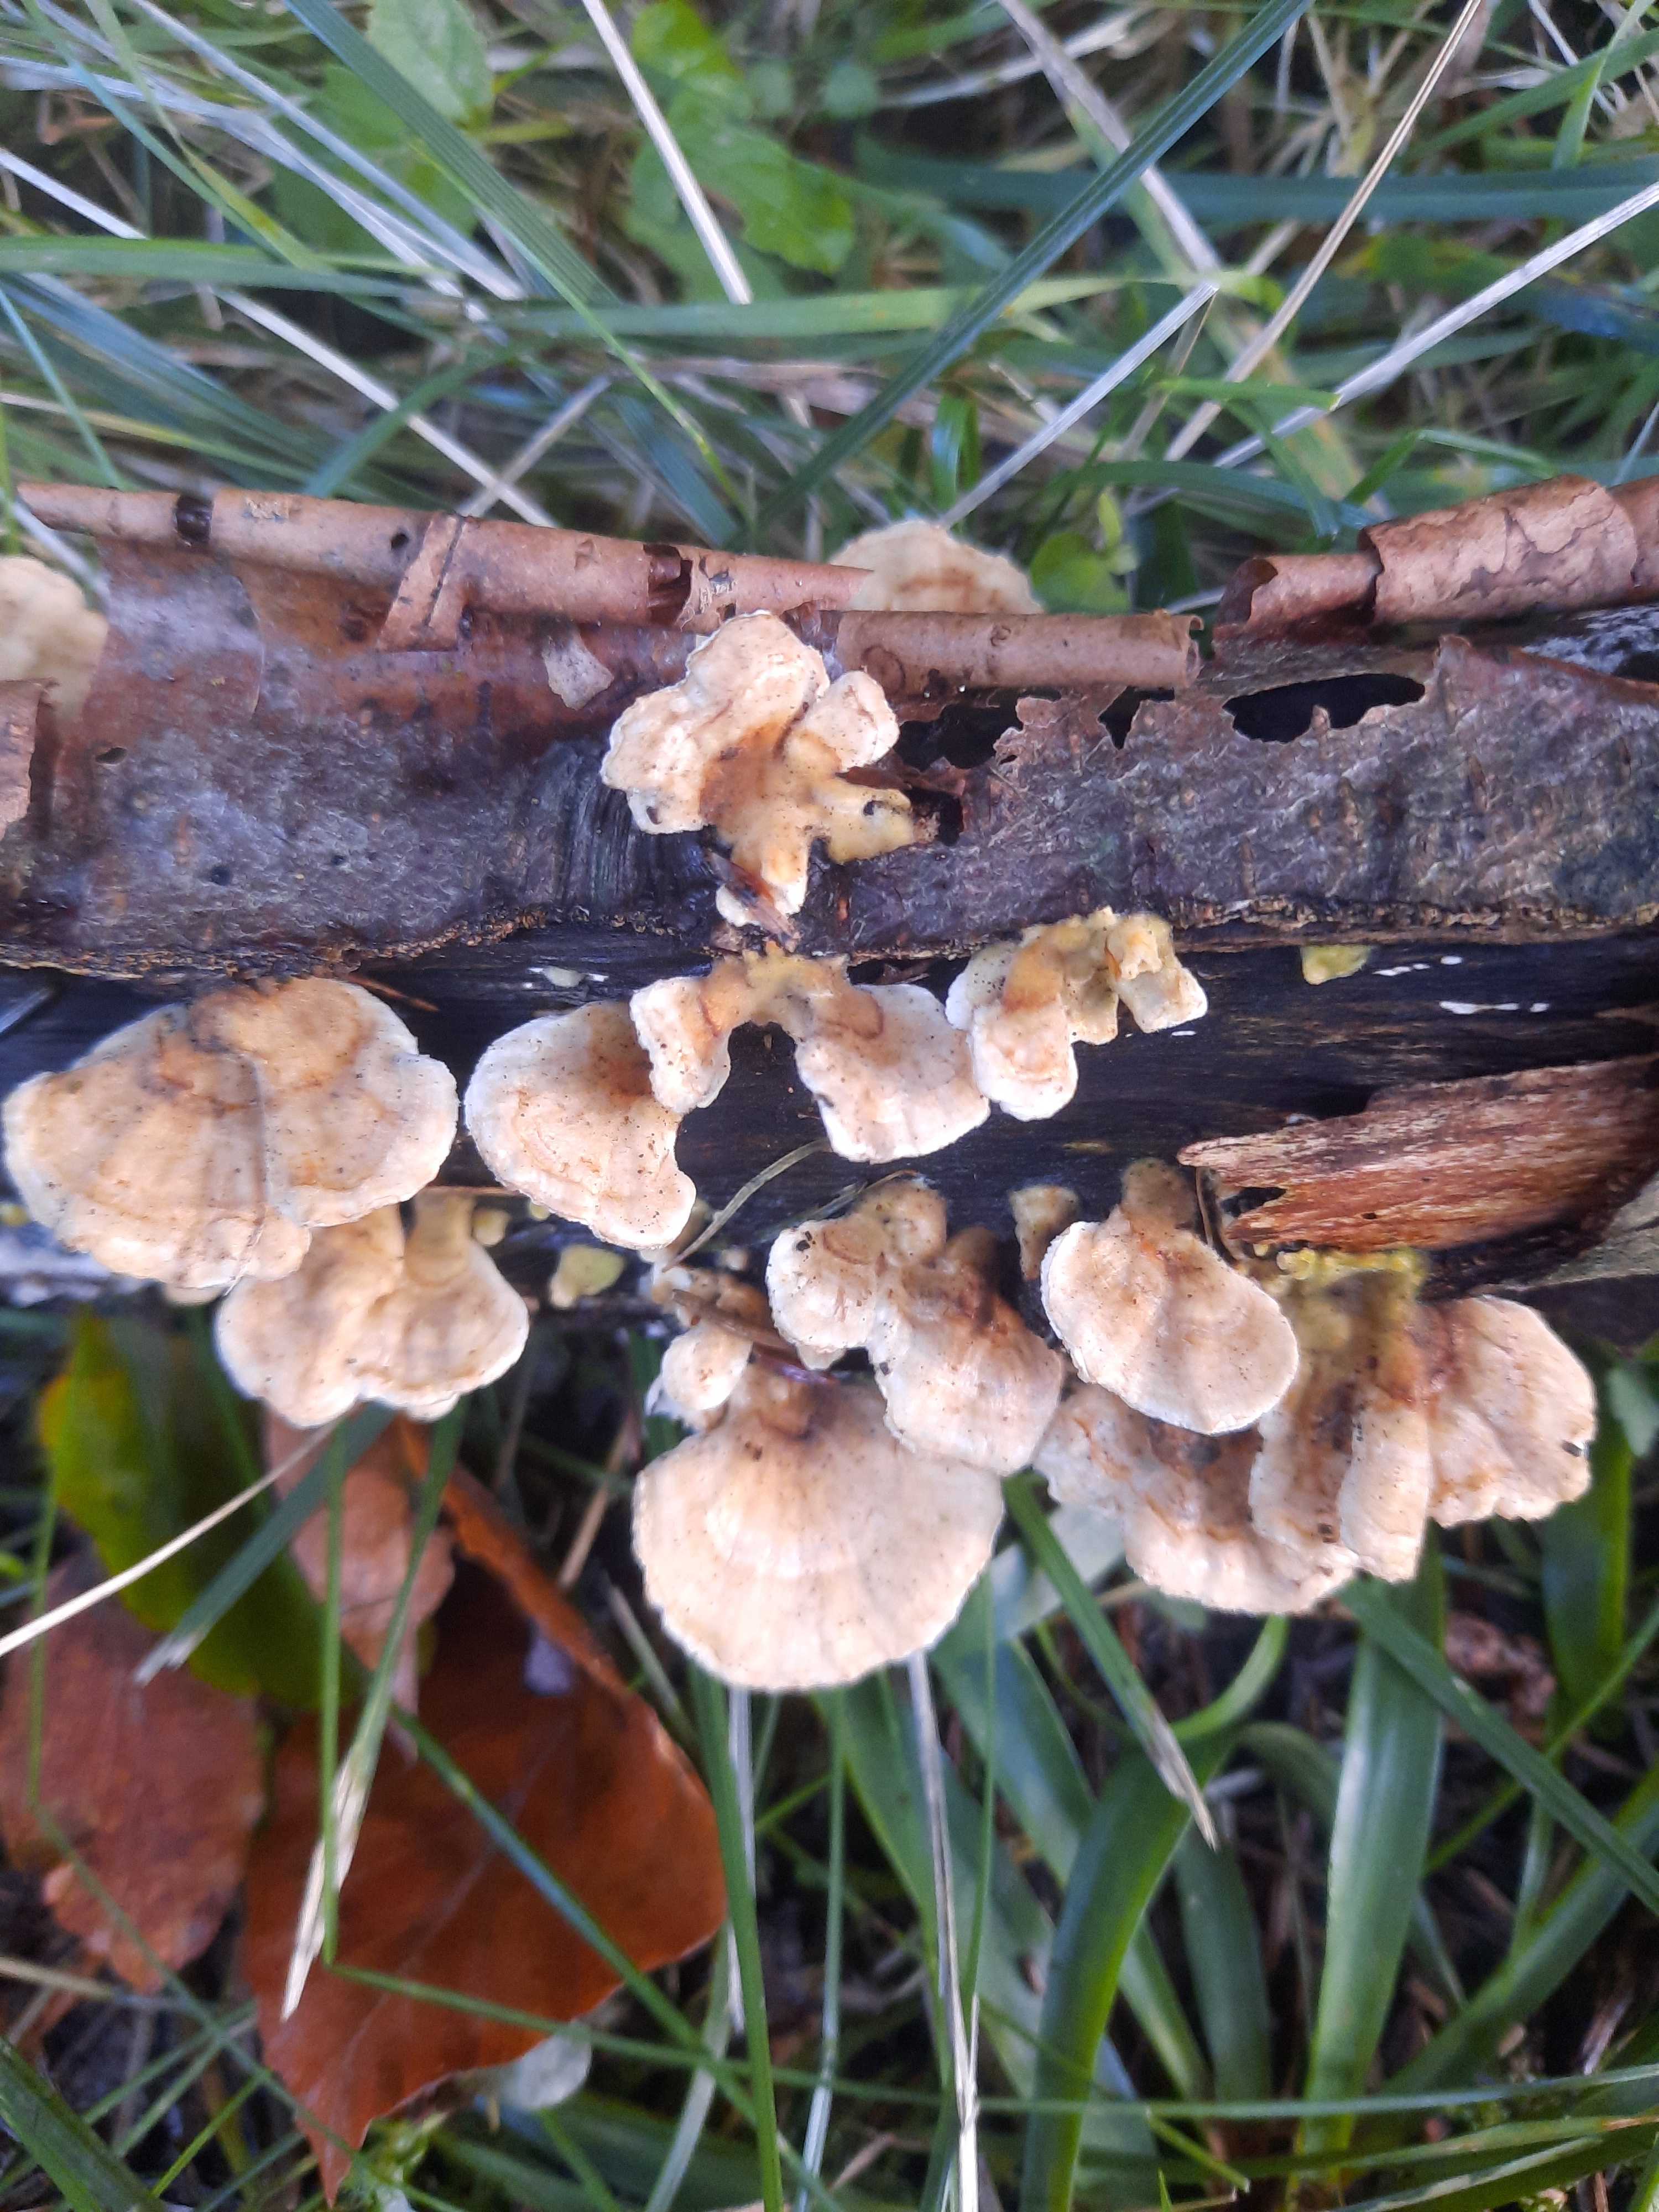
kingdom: Fungi
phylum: Basidiomycota
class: Agaricomycetes
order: Polyporales
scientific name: Polyporales
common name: poresvampordenen
